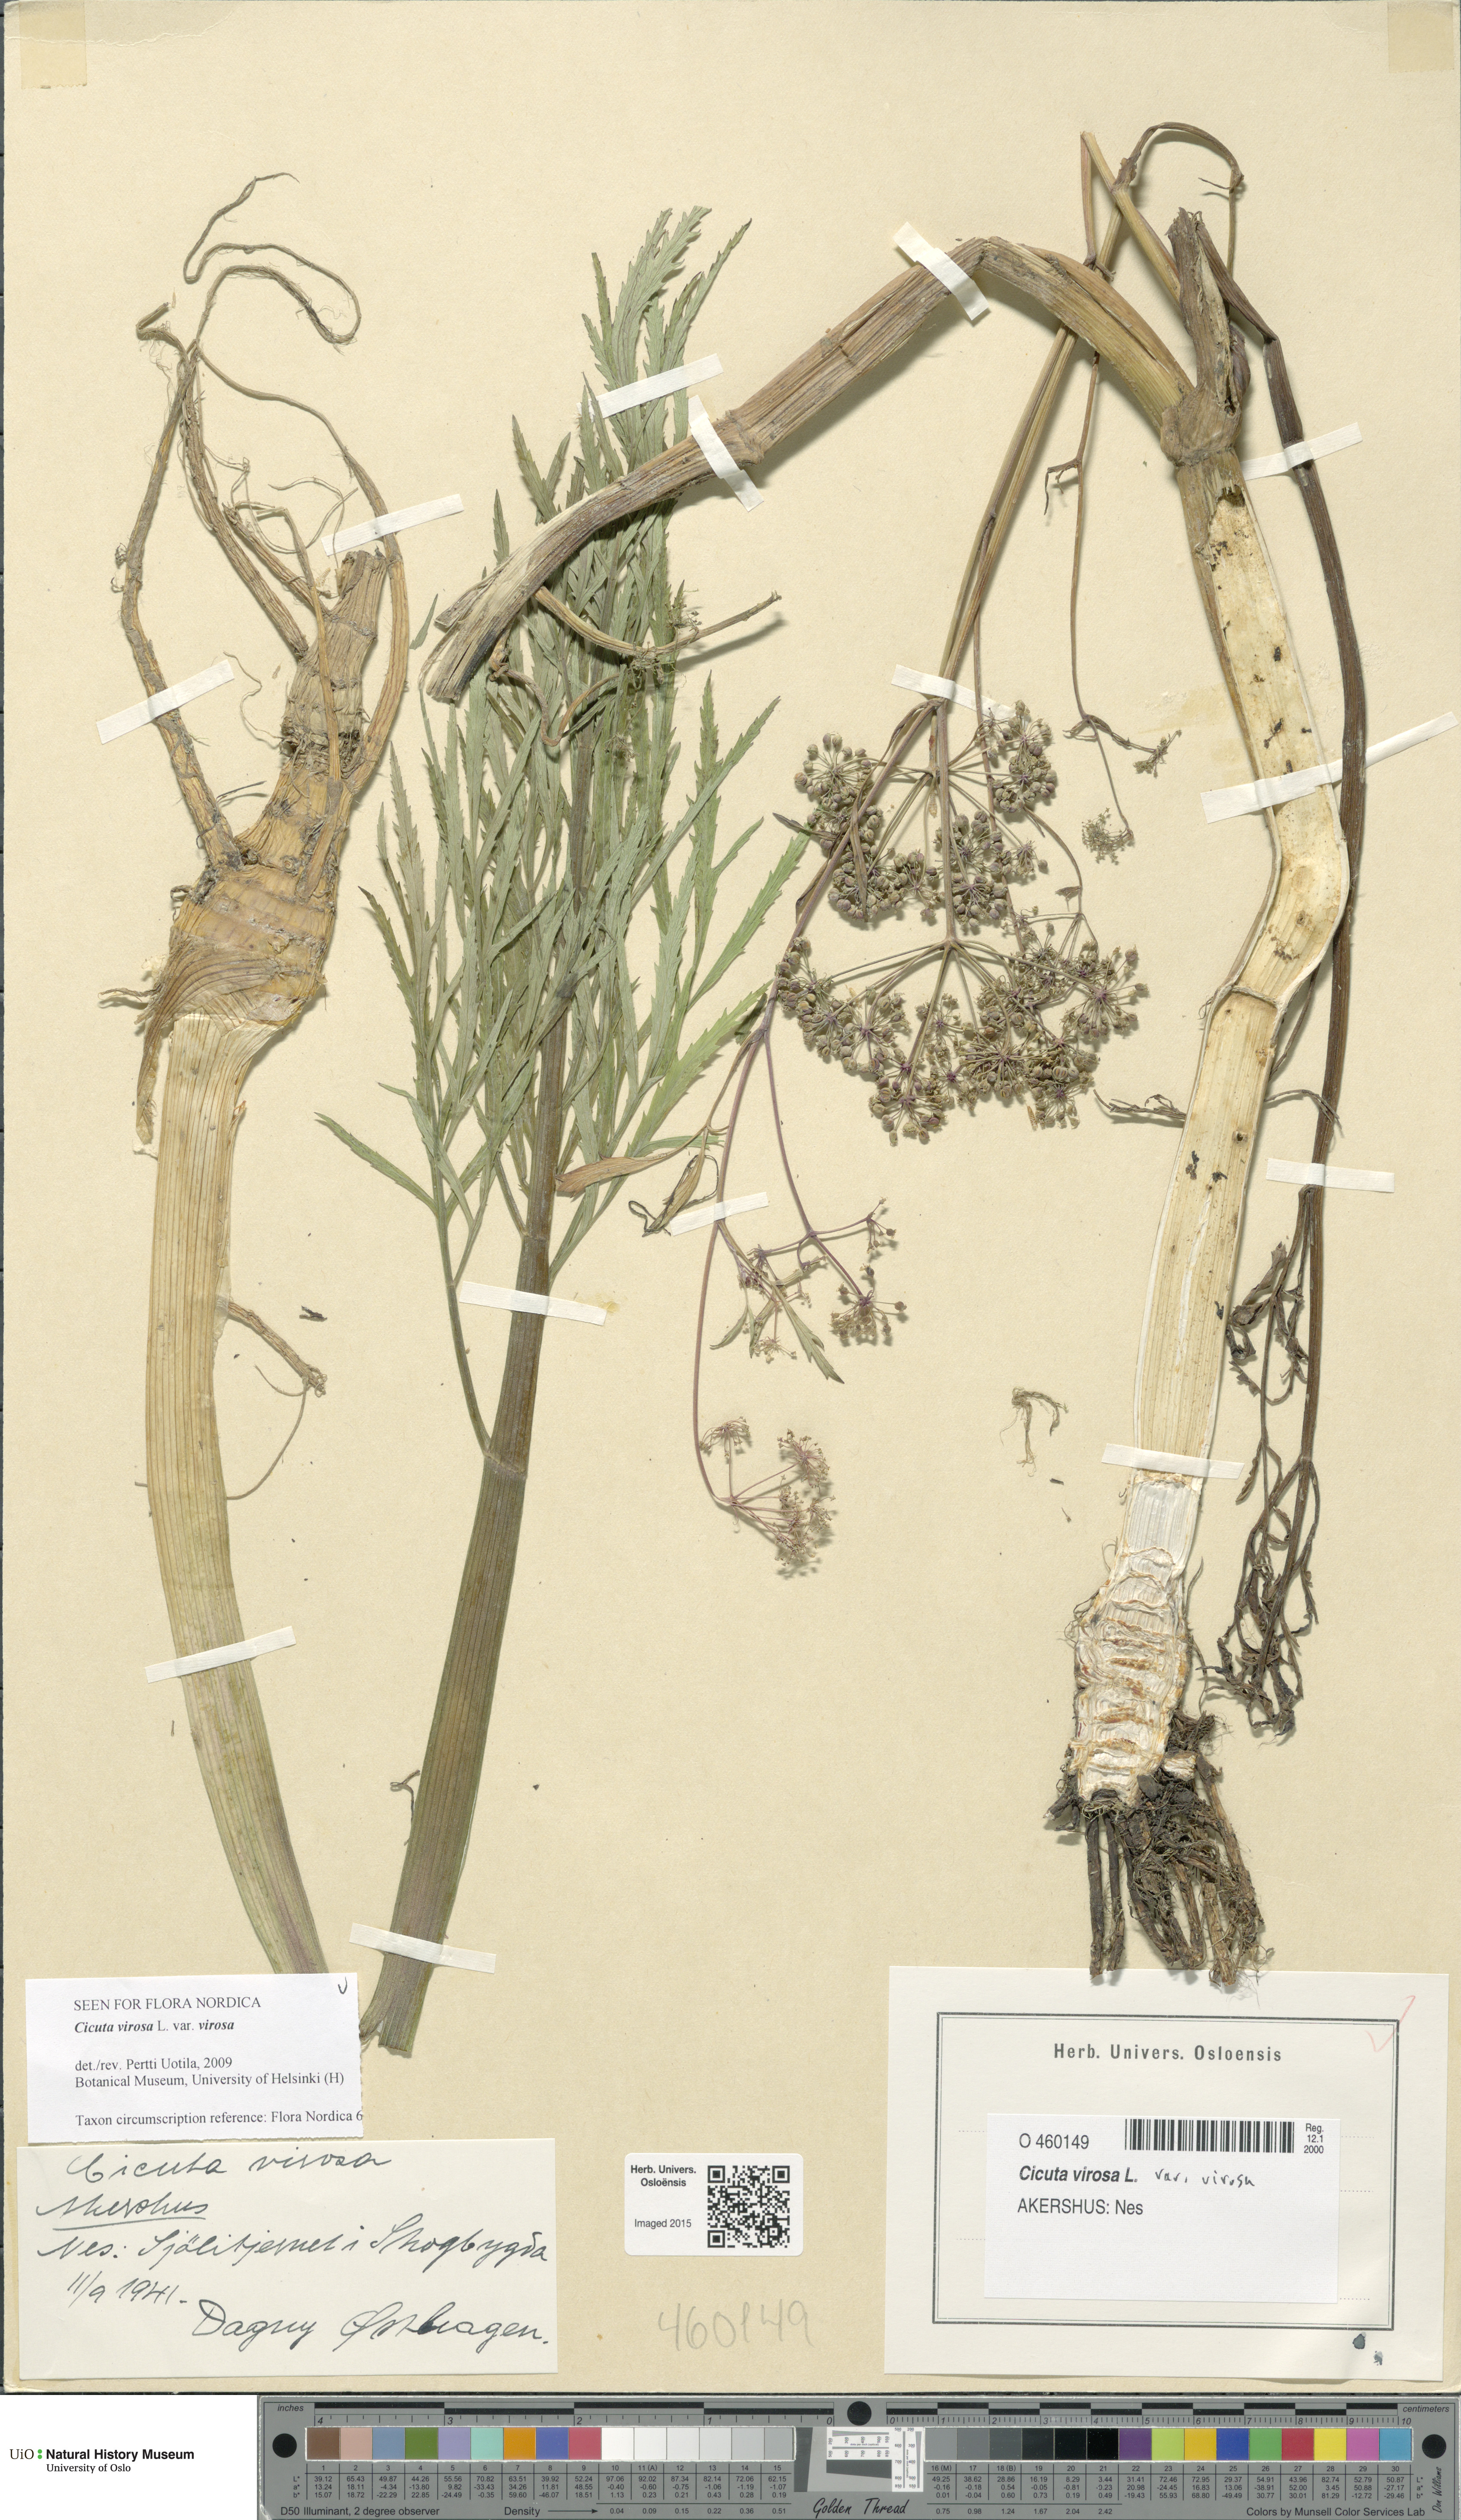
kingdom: Plantae
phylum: Tracheophyta
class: Magnoliopsida
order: Apiales
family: Apiaceae
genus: Cicuta
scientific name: Cicuta virosa
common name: Cowbane
